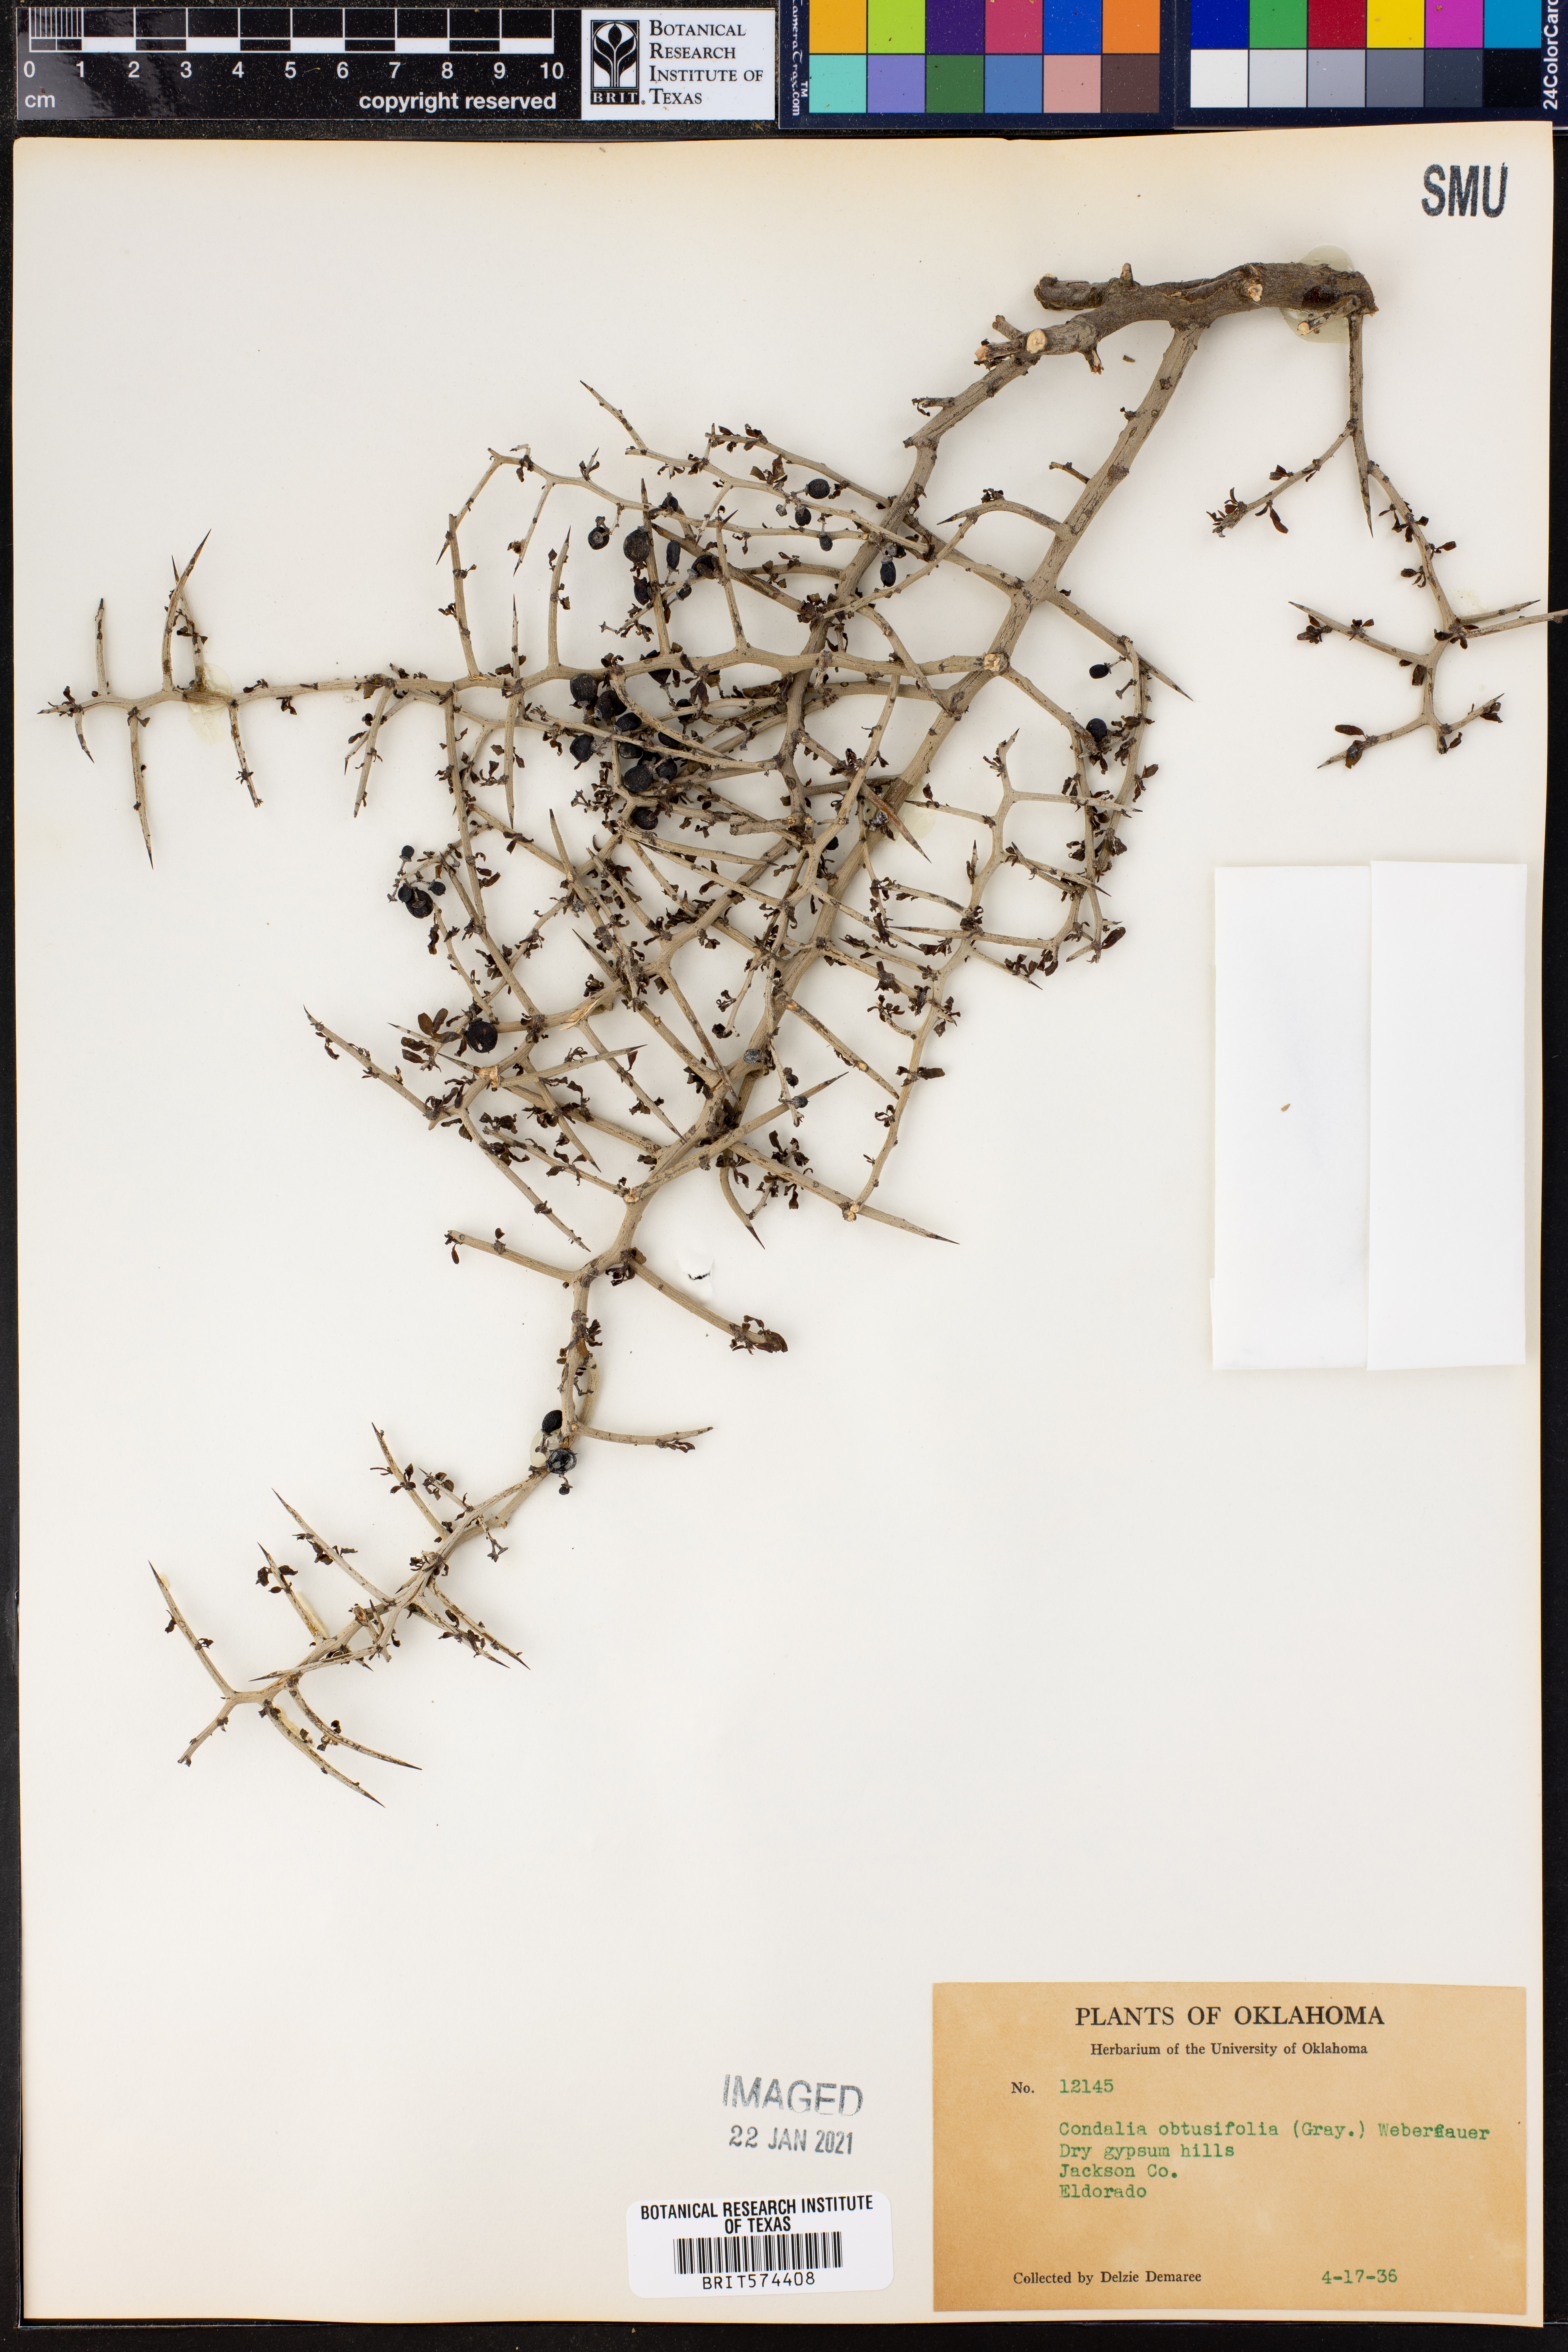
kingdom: Plantae
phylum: Tracheophyta
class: Magnoliopsida
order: Rosales
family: Rhamnaceae
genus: Sarcomphalus
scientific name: Sarcomphalus obtusifolius
